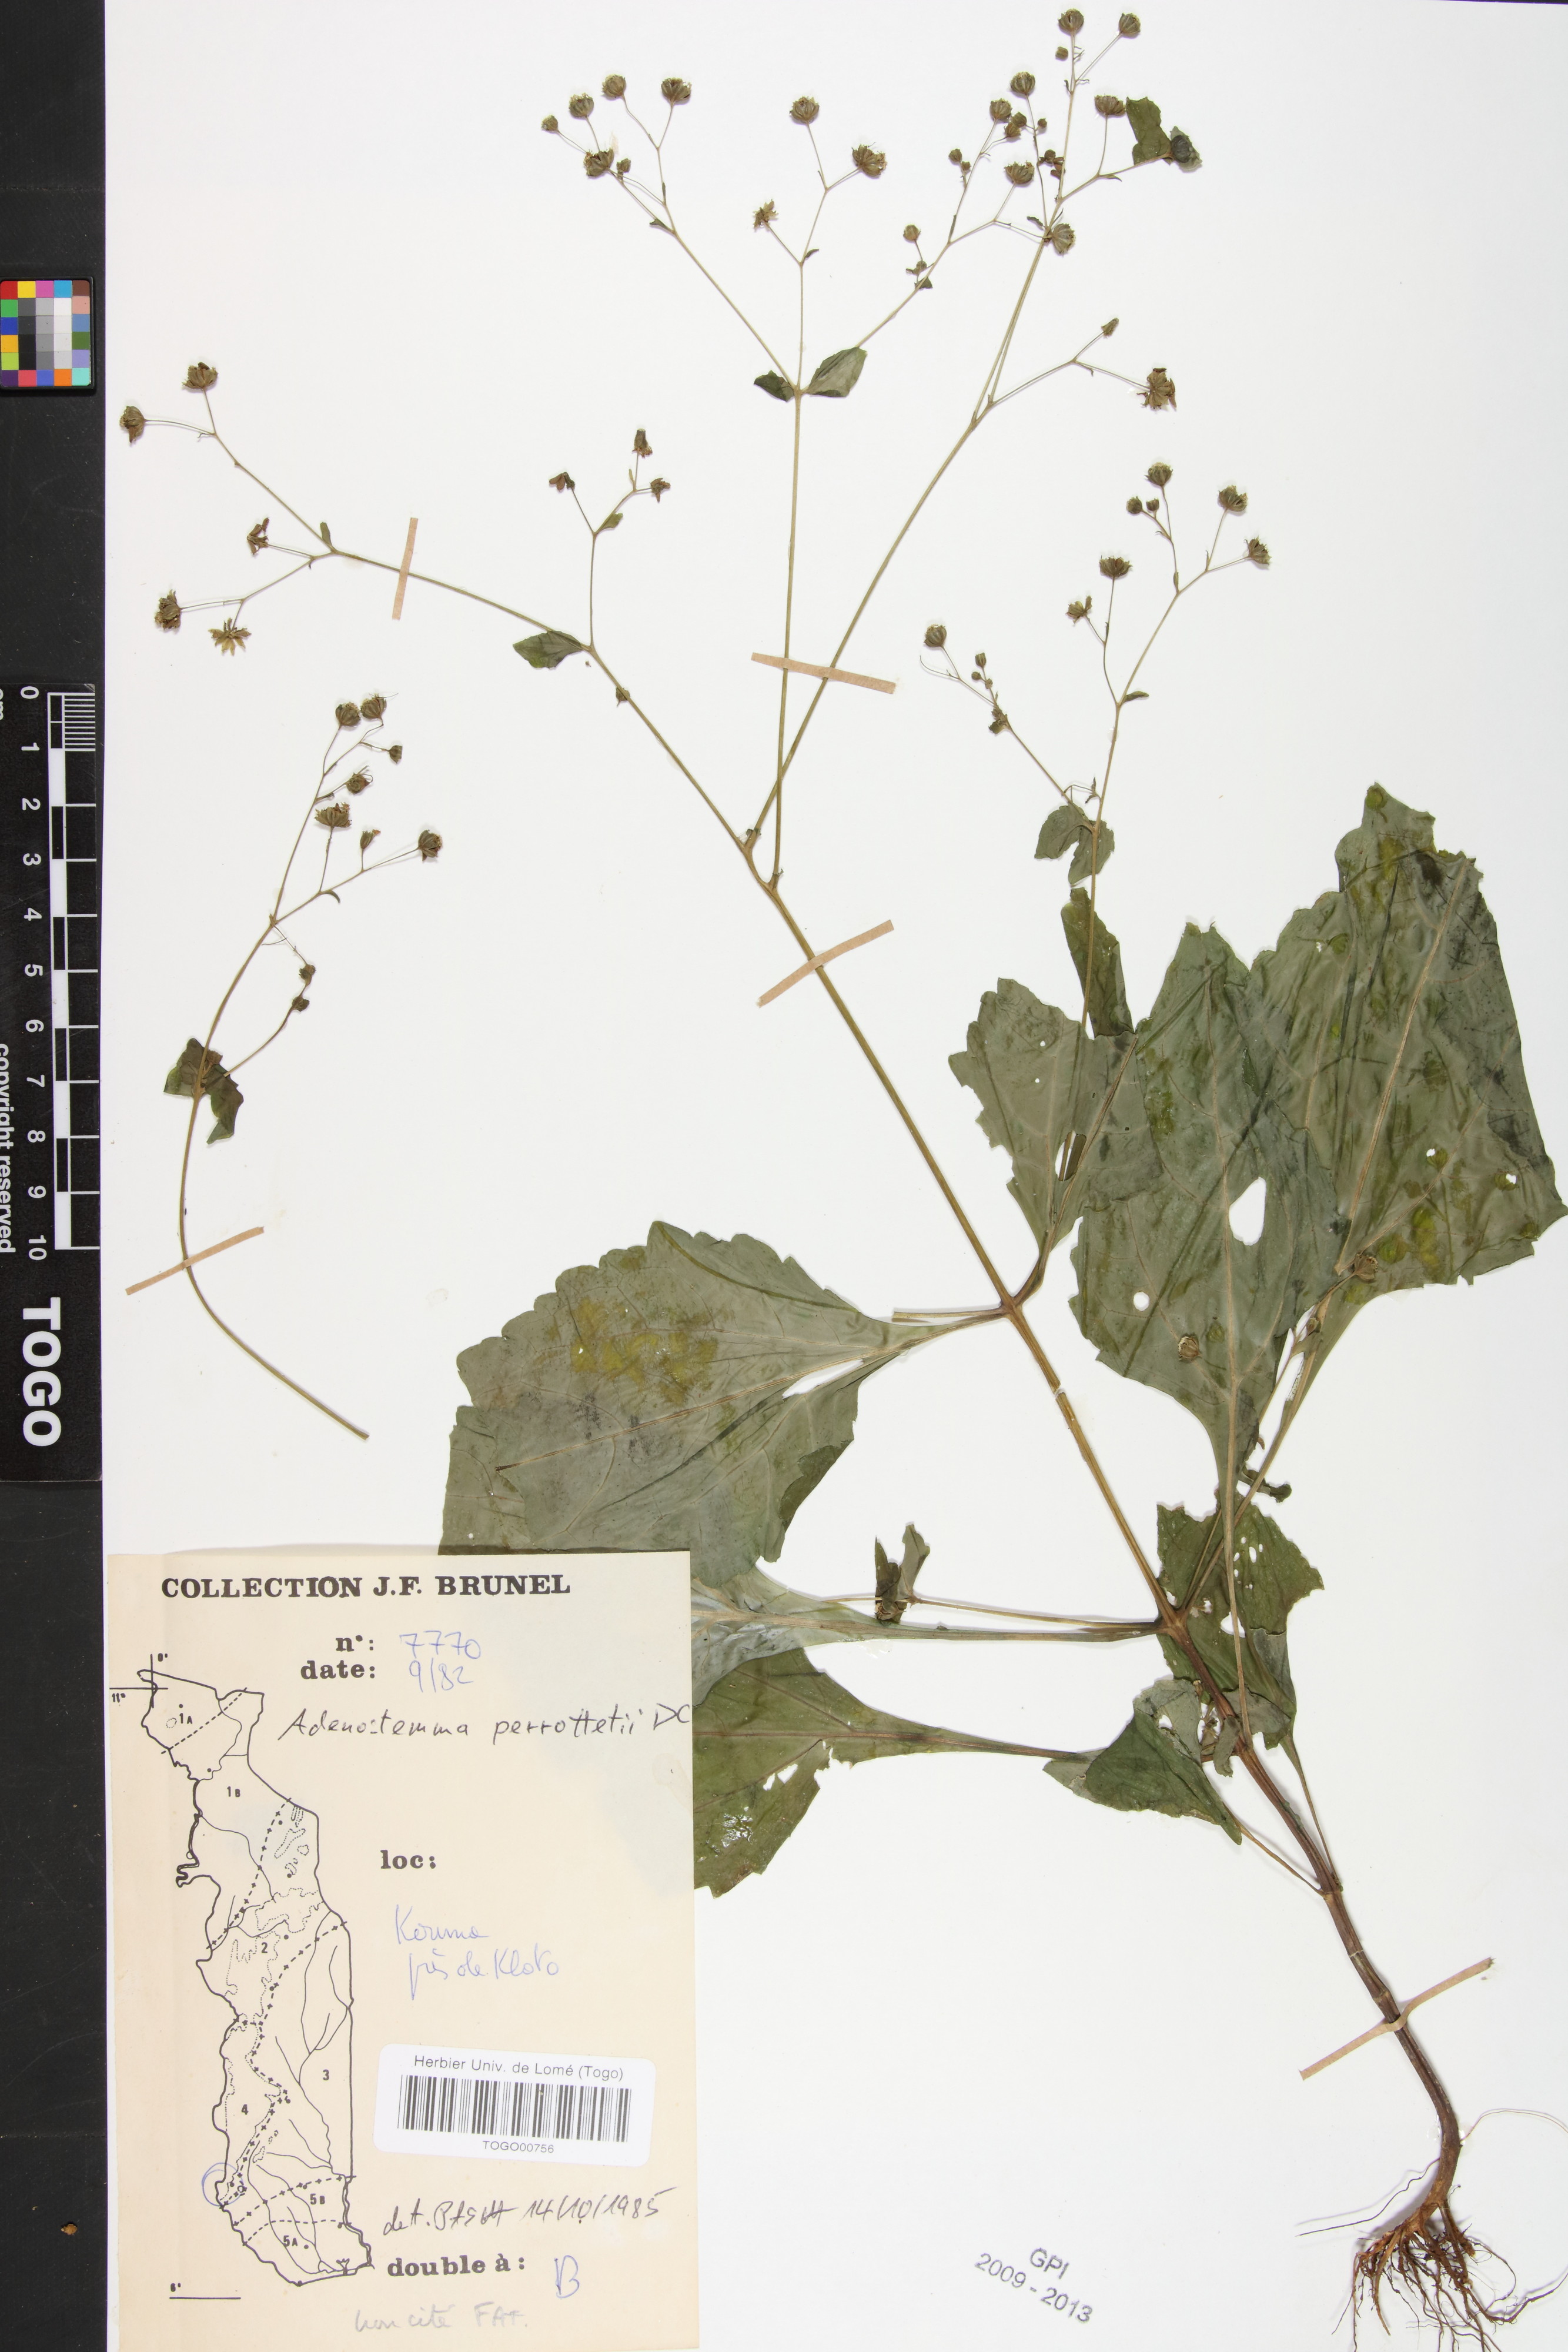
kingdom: Plantae
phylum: Tracheophyta
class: Magnoliopsida
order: Asterales
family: Asteraceae
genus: Adenostemma
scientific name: Adenostemma viscosum
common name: Dungweed
